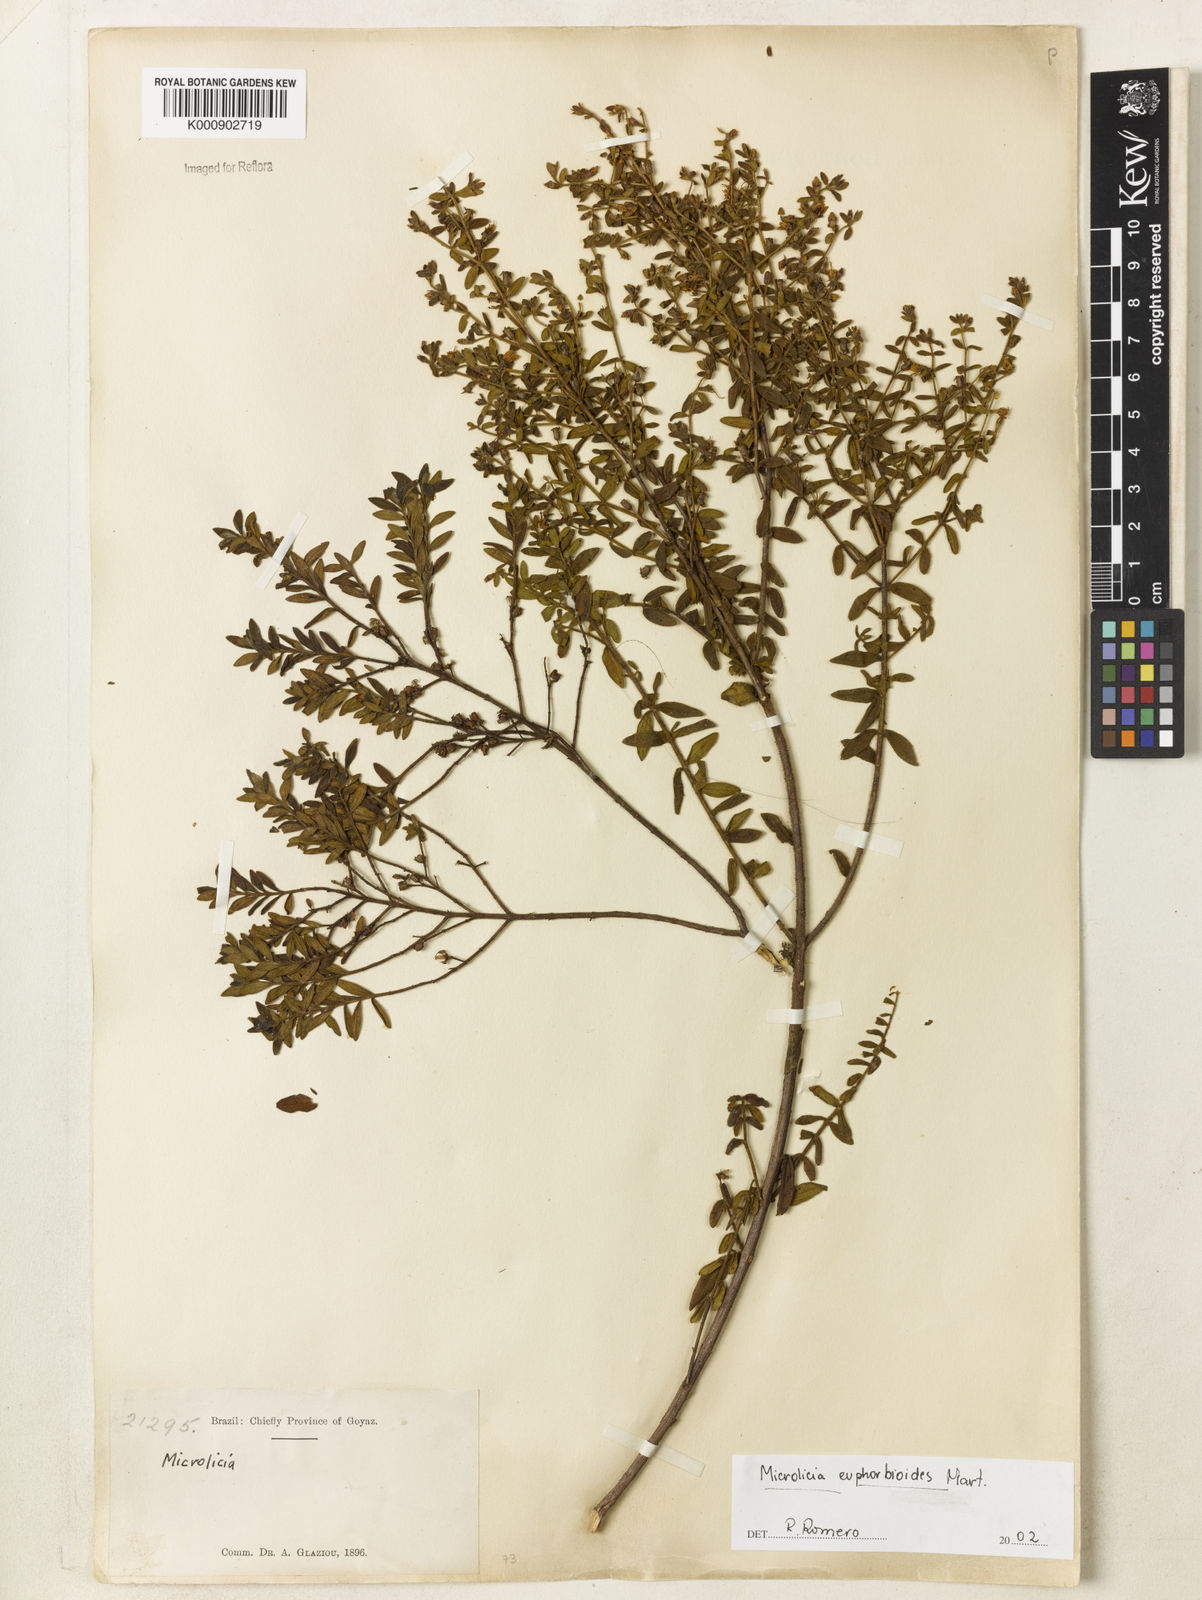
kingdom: Plantae
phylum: Tracheophyta
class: Magnoliopsida
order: Myrtales
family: Melastomataceae
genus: Microlicia
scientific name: Microlicia euphorbioides
